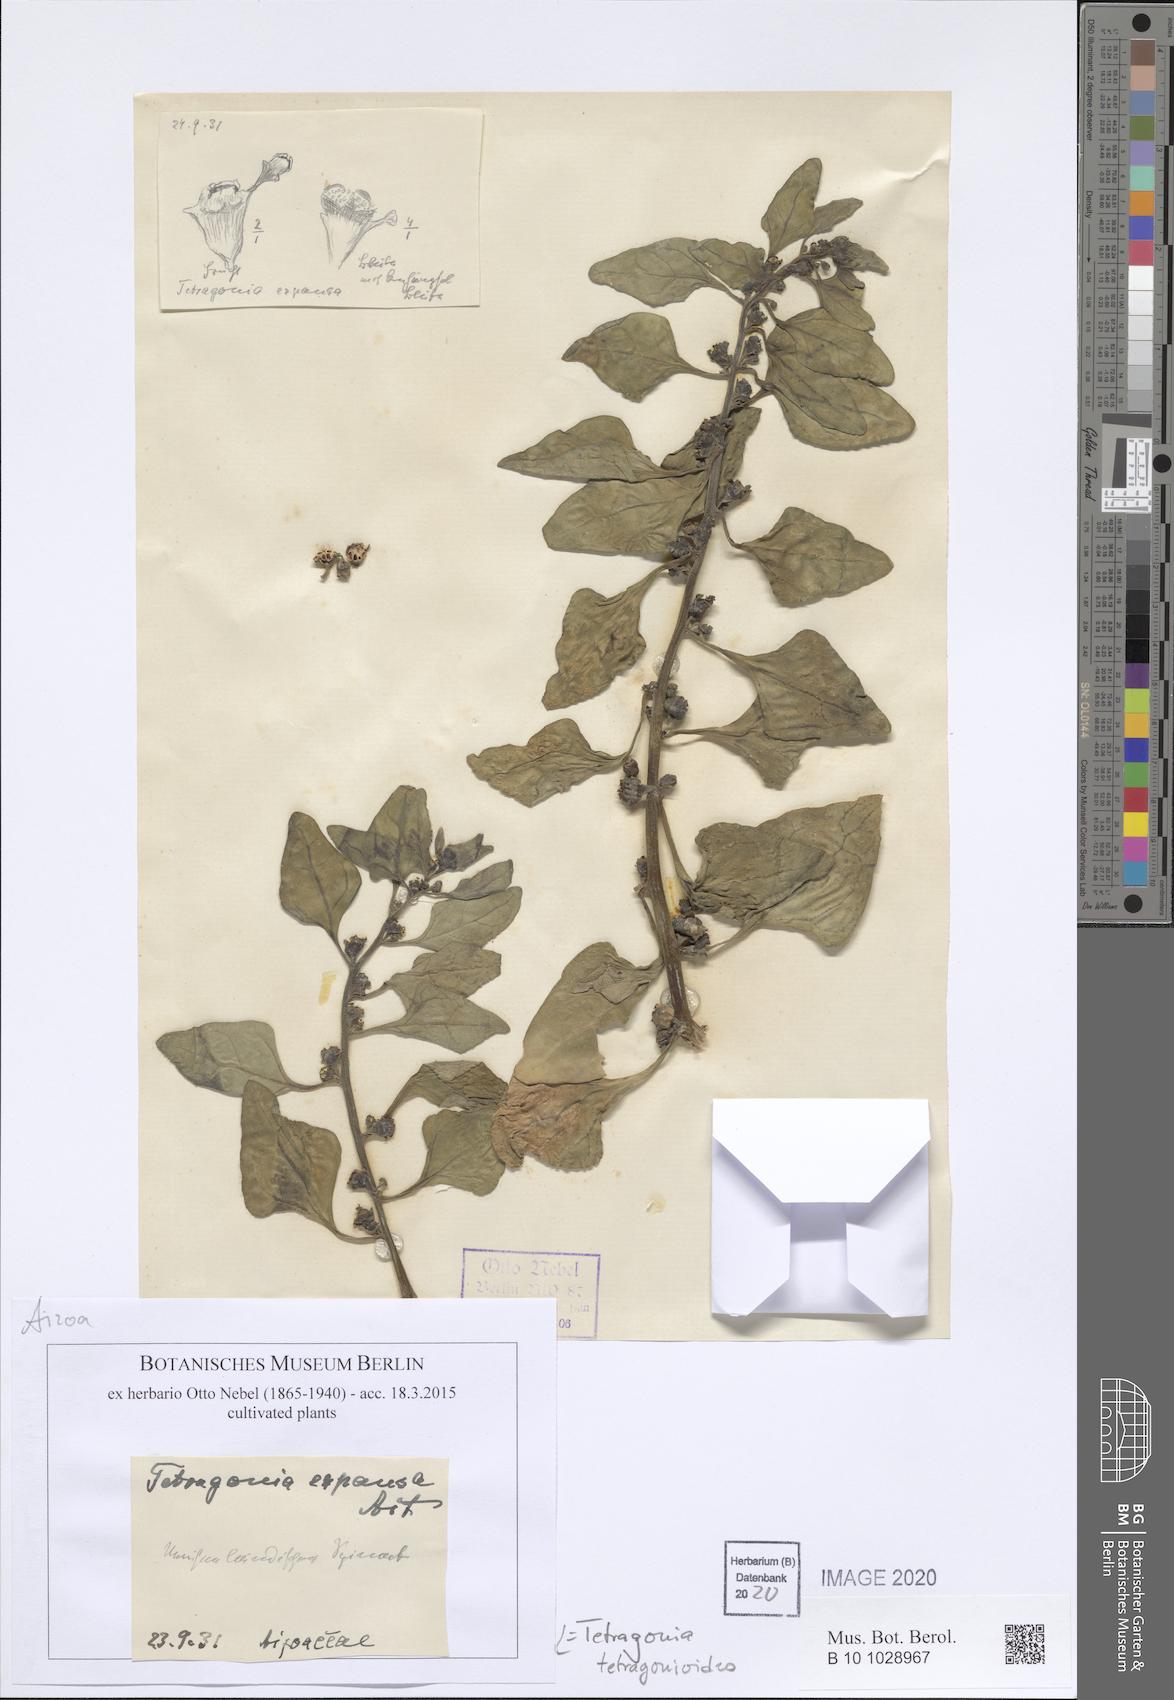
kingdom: Plantae
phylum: Tracheophyta
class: Magnoliopsida
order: Caryophyllales
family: Aizoaceae
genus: Tetragonia
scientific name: Tetragonia tetragonoides
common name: New zealand-spinach
